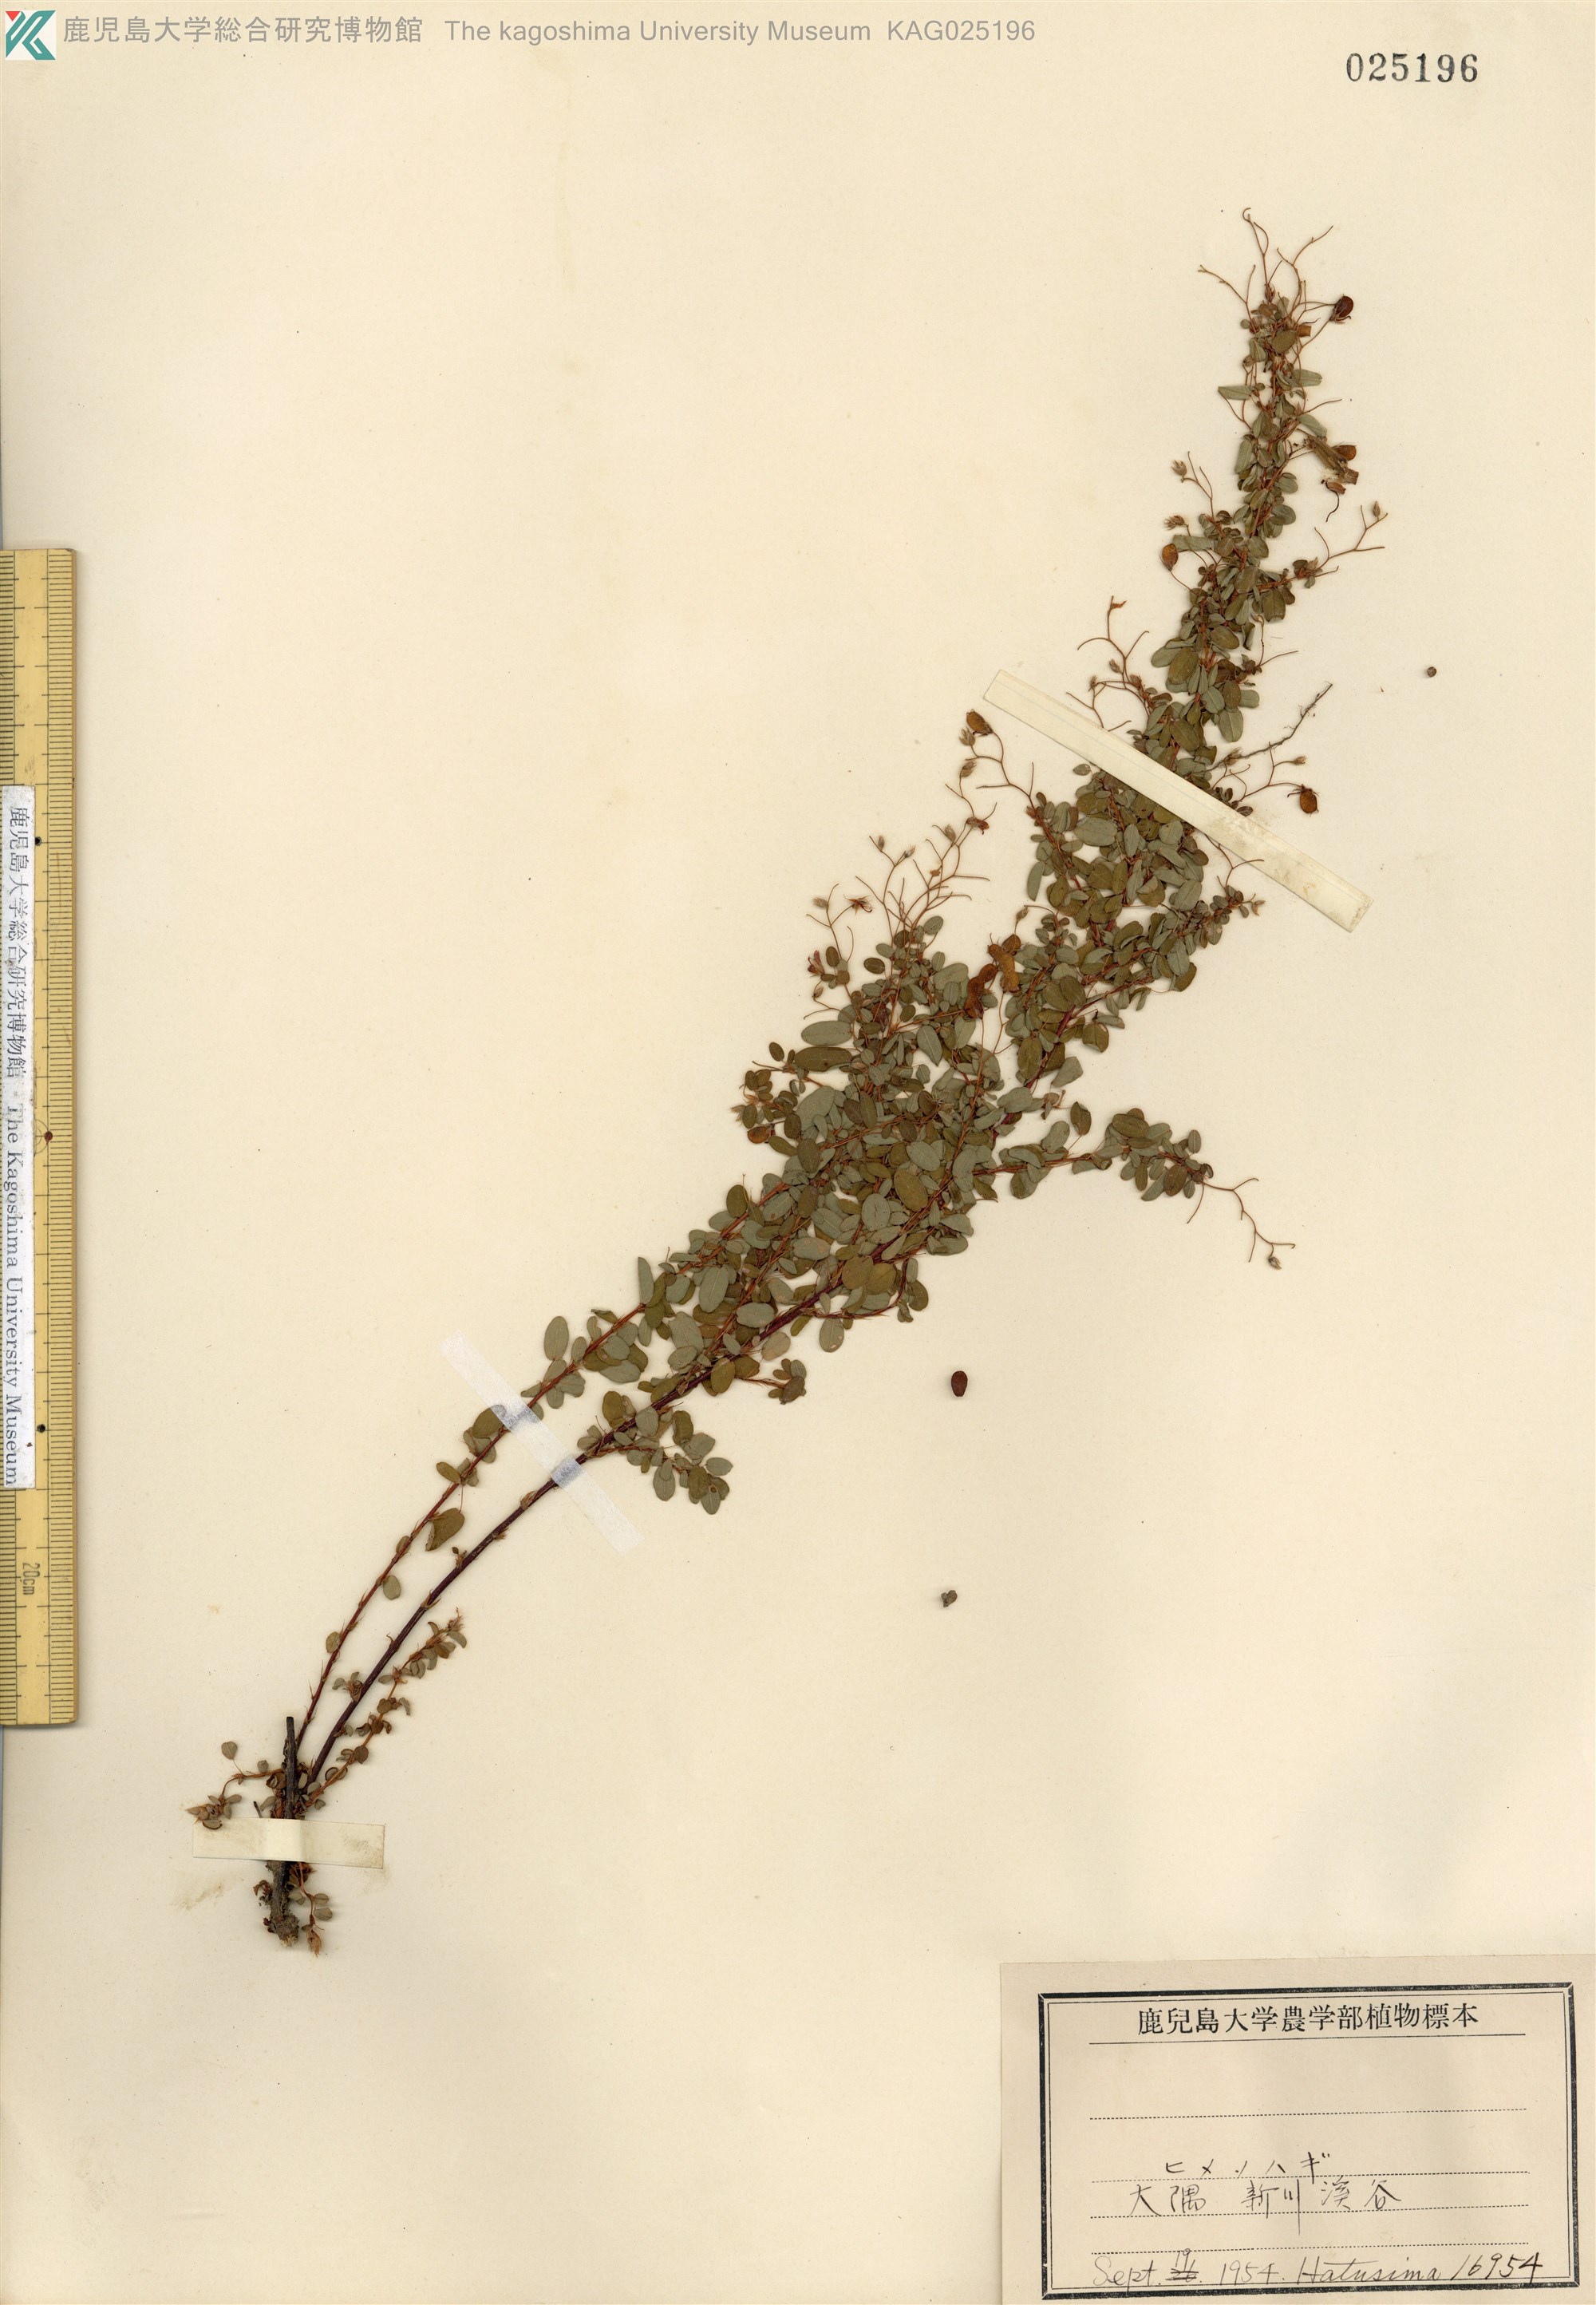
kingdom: Plantae
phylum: Tracheophyta
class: Magnoliopsida
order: Fabales
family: Fabaceae
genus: Leptodesmia
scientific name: Leptodesmia microphylla
